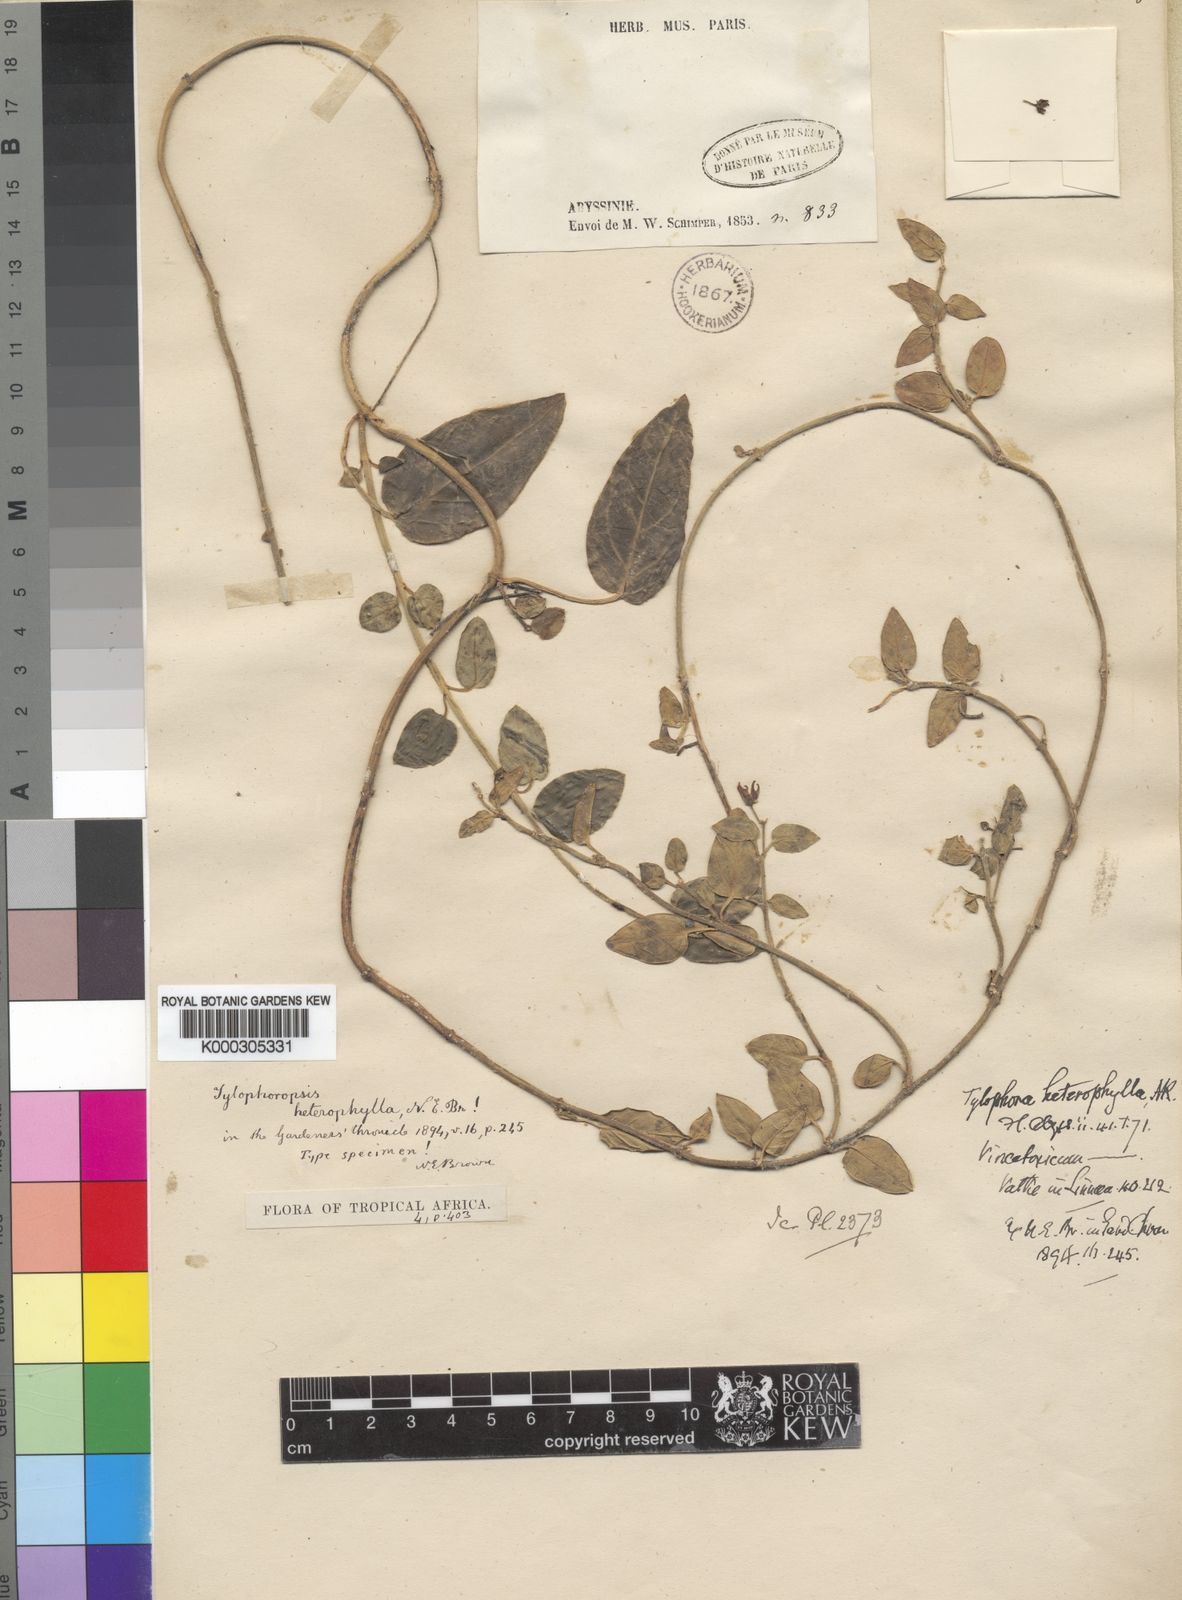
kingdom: Plantae
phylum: Tracheophyta
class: Magnoliopsida
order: Gentianales
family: Apocynaceae
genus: Vincetoxicum
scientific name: Vincetoxicum heterophyllum
